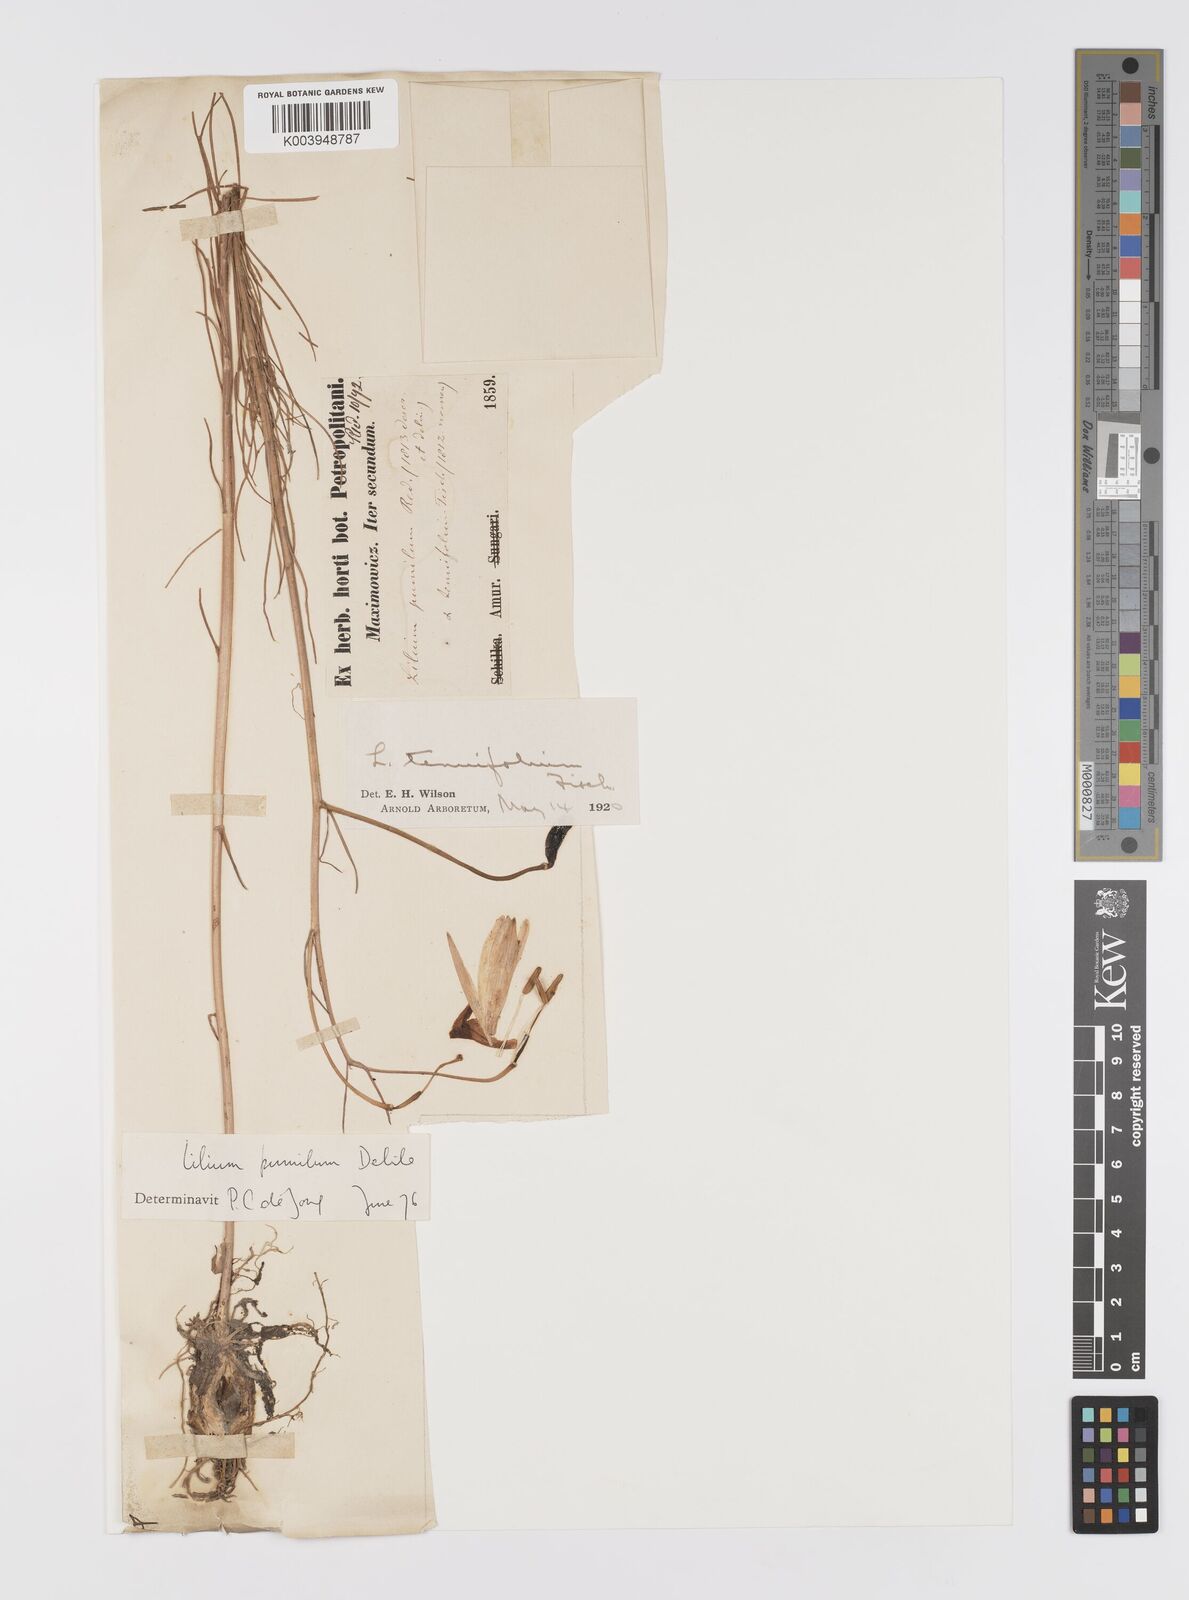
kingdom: Plantae
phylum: Tracheophyta
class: Liliopsida
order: Liliales
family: Liliaceae
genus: Lilium
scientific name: Lilium pumilum
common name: Coral lily
